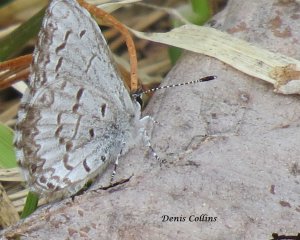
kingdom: Animalia
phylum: Arthropoda
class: Insecta
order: Lepidoptera
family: Lycaenidae
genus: Celastrina
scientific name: Celastrina lucia
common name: Northern Spring Azure
